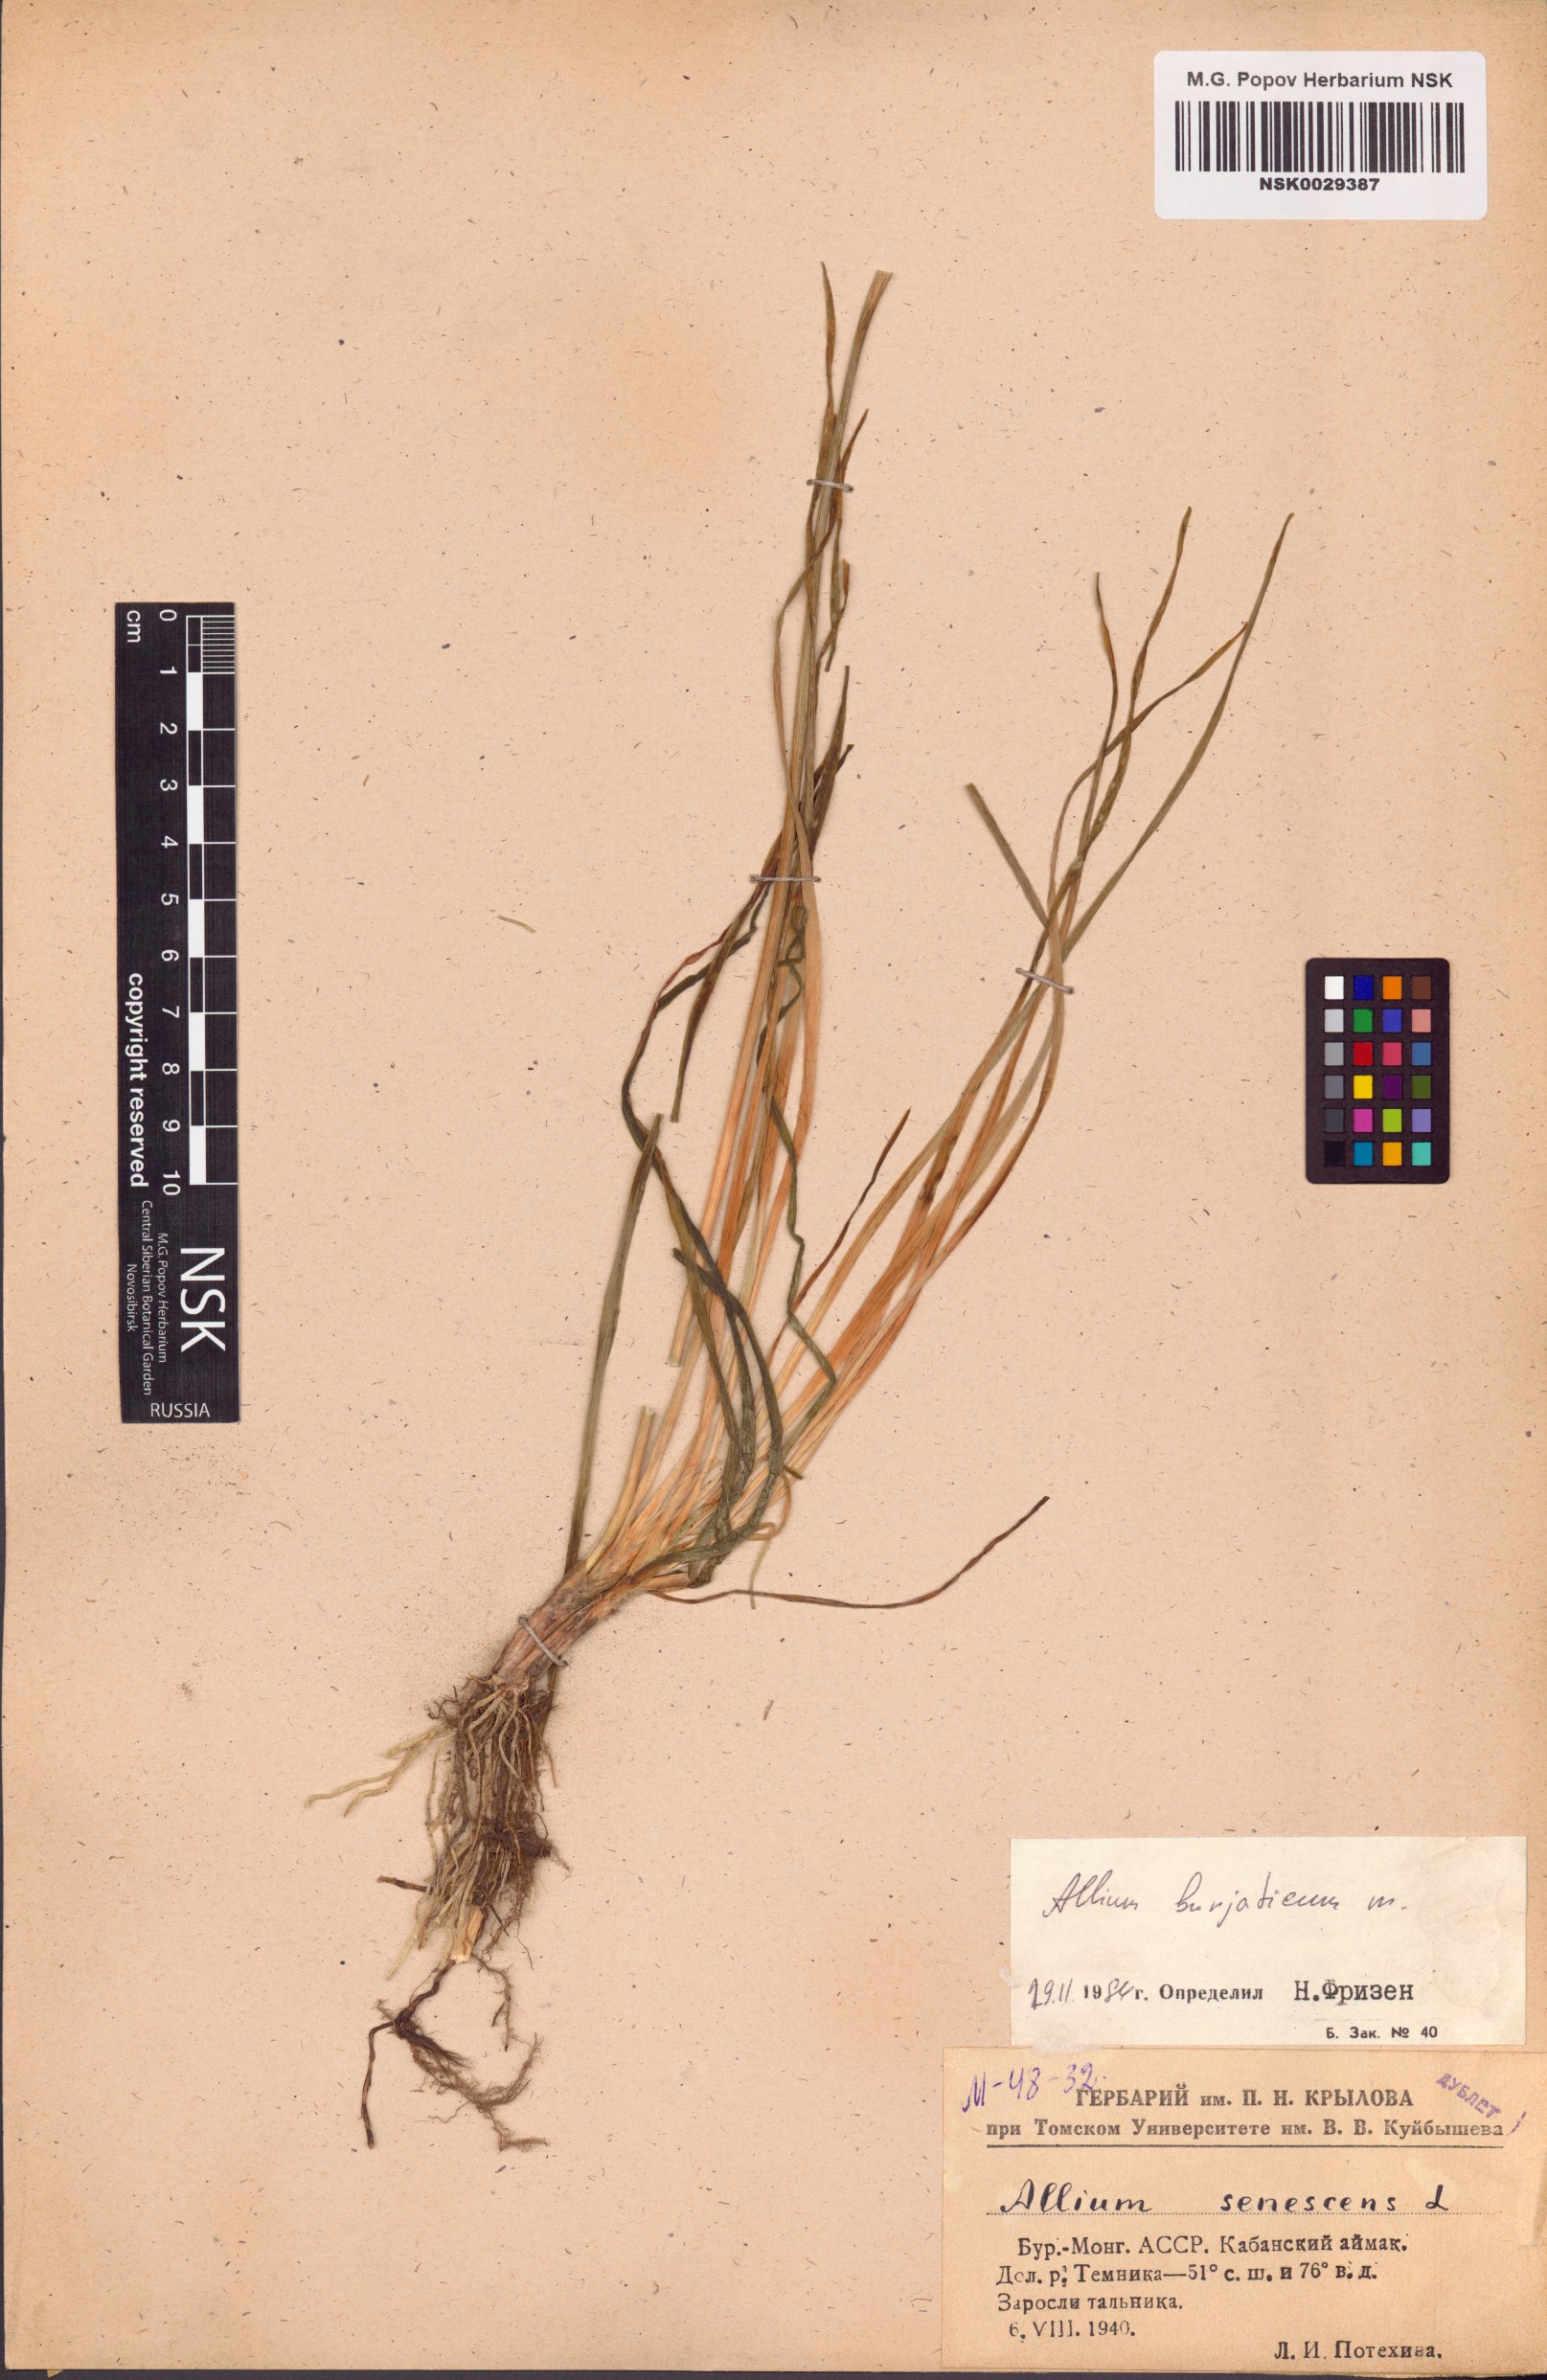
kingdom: Plantae
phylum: Tracheophyta
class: Liliopsida
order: Asparagales
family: Amaryllidaceae
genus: Allium
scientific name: Allium burjaticum
